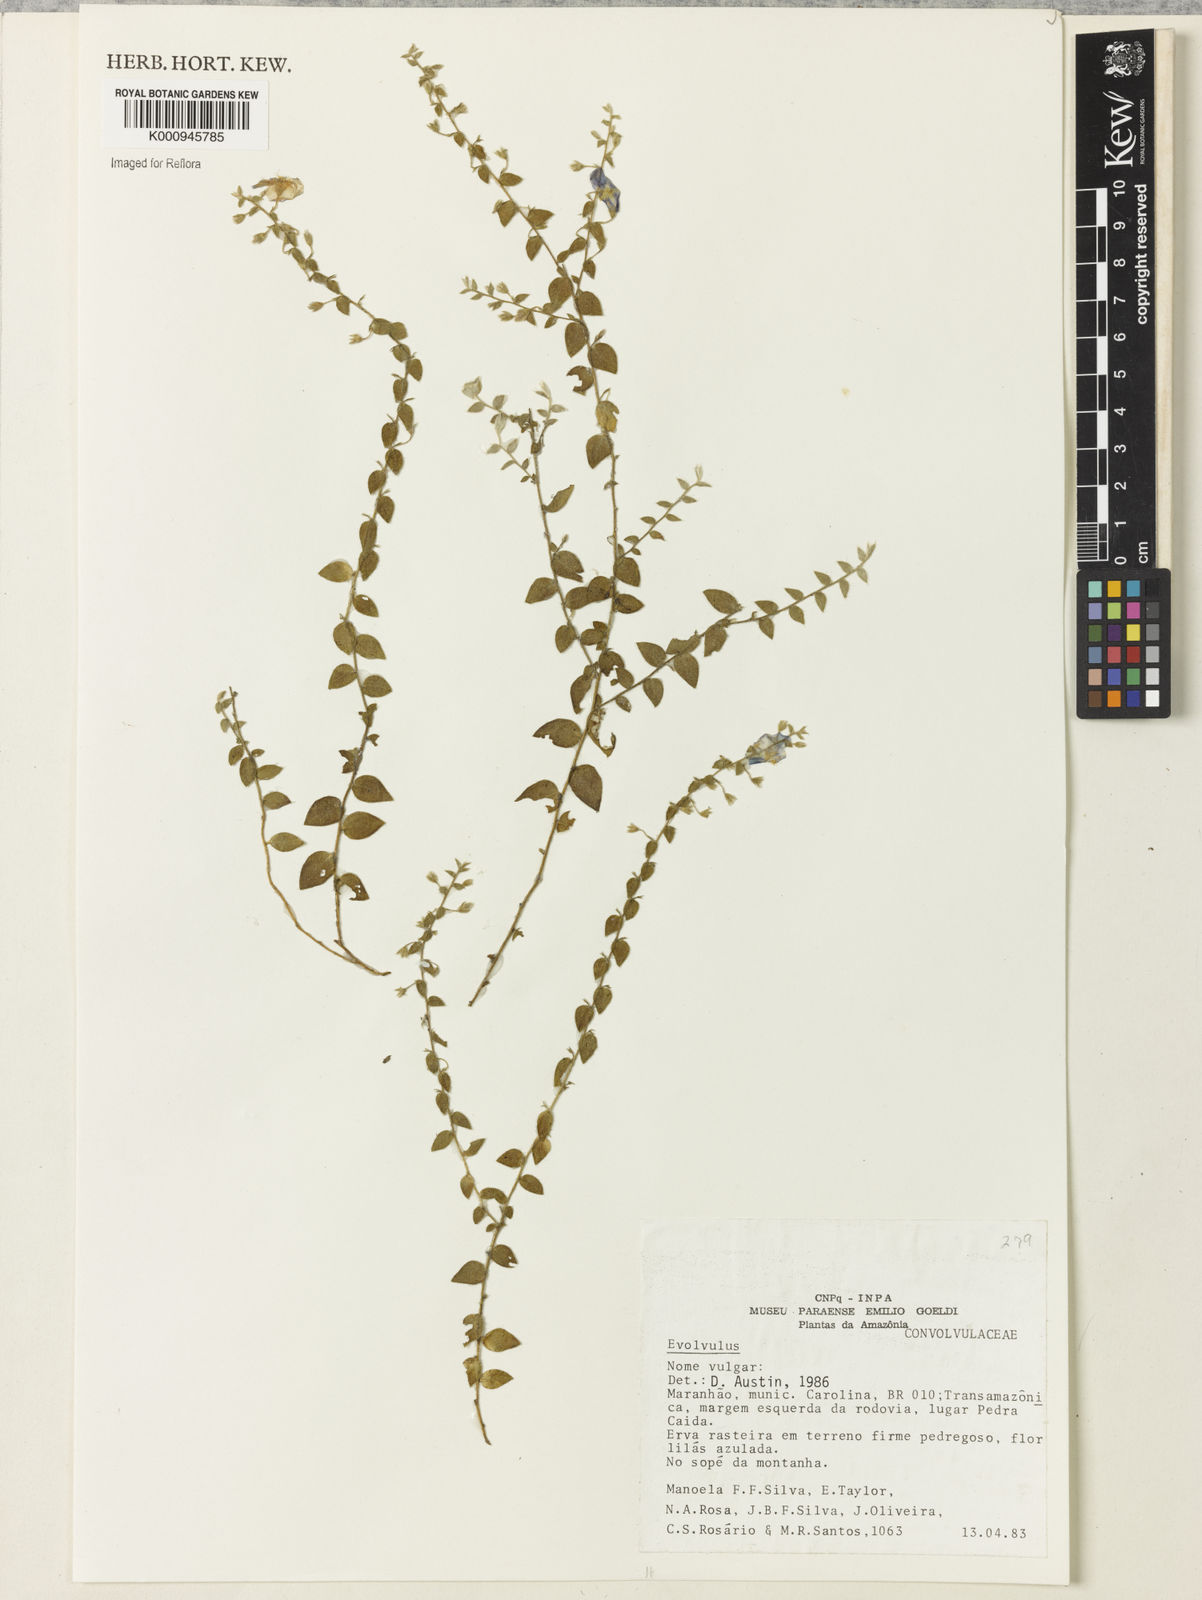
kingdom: Plantae
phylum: Tracheophyta
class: Magnoliopsida
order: Solanales
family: Convolvulaceae
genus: Evolvulus
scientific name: Evolvulus
